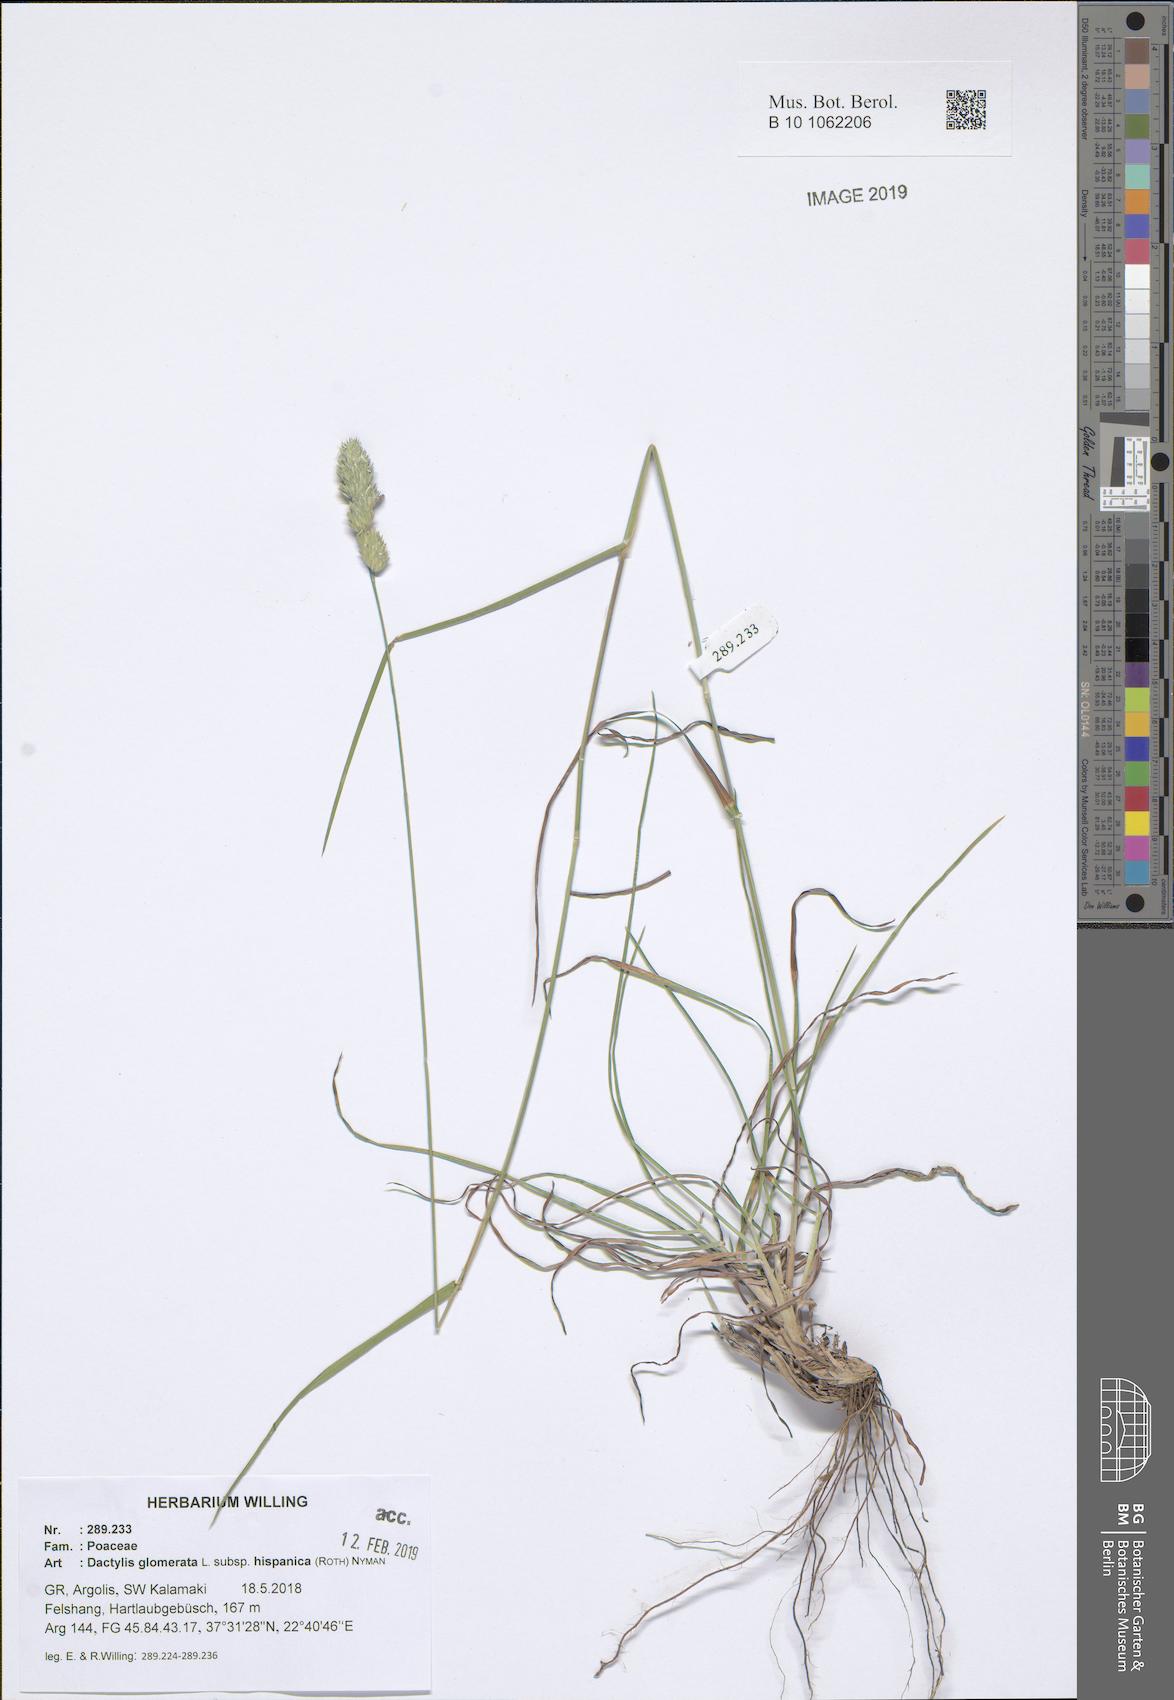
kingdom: Plantae
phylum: Tracheophyta
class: Liliopsida
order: Poales
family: Poaceae
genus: Dactylis
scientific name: Dactylis glomerata
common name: Orchardgrass
